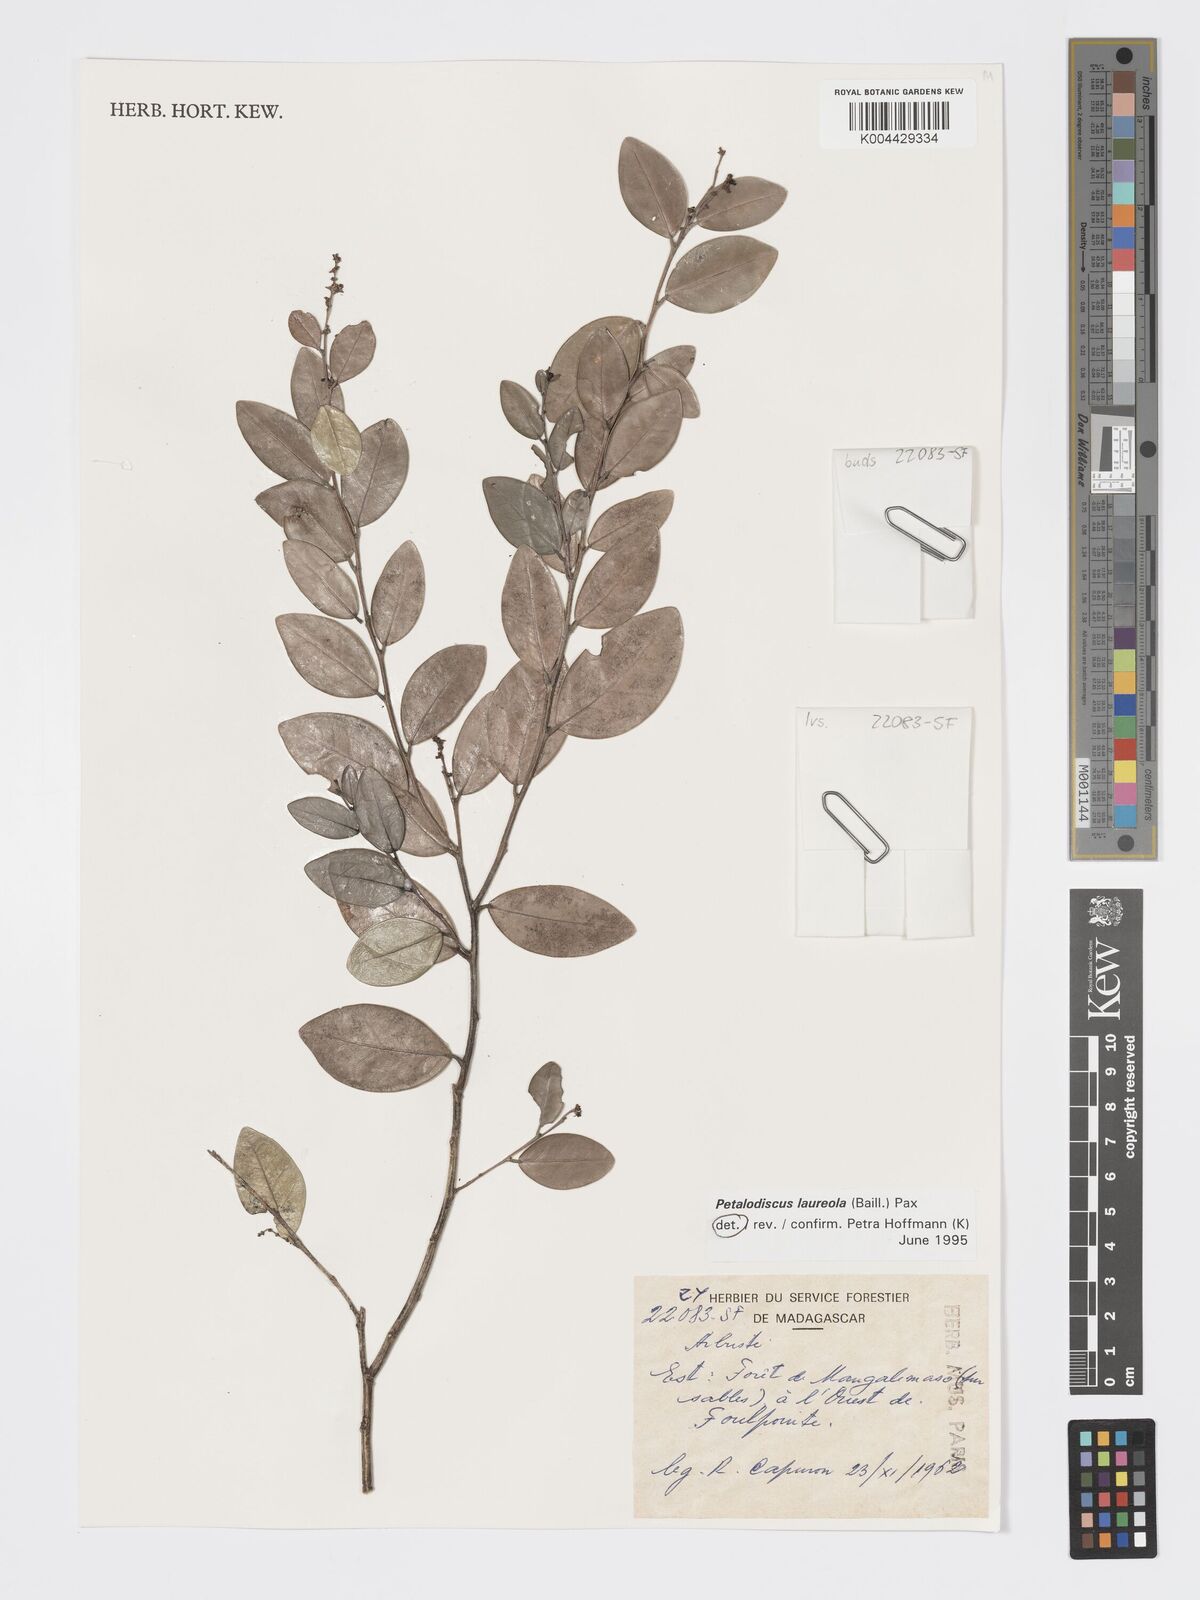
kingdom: Plantae
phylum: Tracheophyta
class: Magnoliopsida
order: Malpighiales
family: Phyllanthaceae
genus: Wielandia
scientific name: Wielandia laureola
